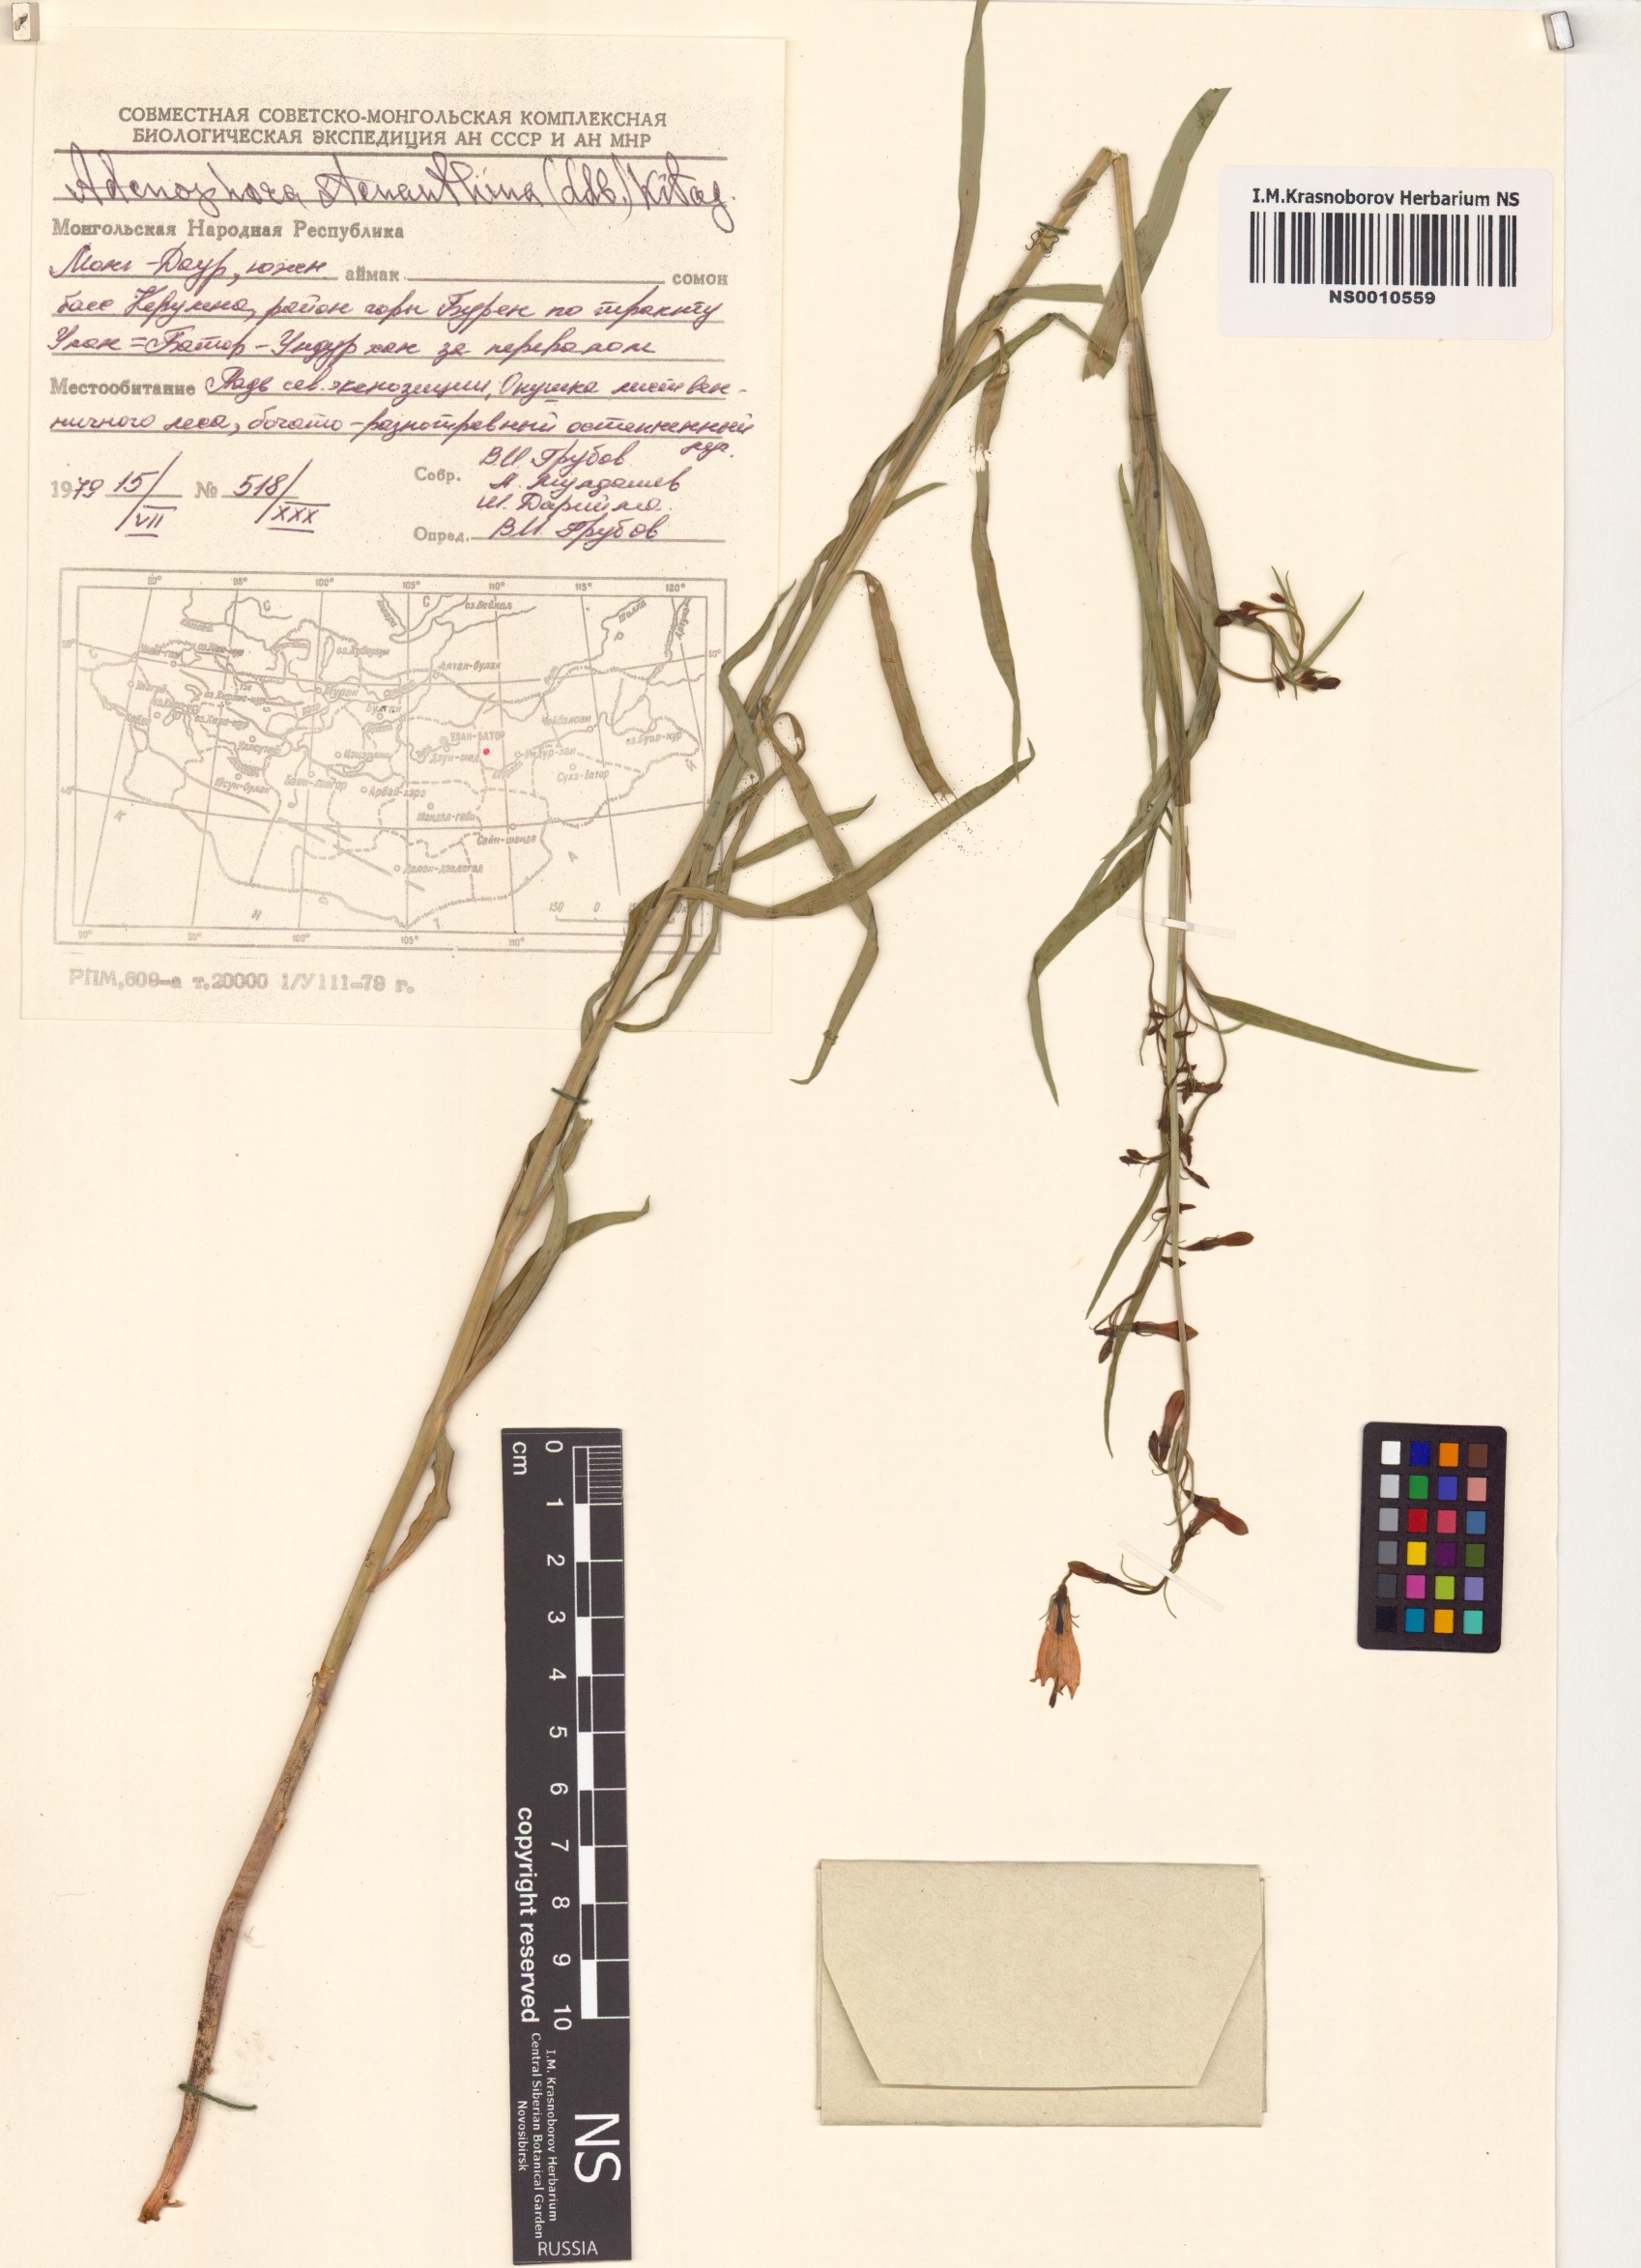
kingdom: Plantae
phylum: Tracheophyta
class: Magnoliopsida
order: Asterales
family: Campanulaceae
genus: Adenophora
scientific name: Adenophora stenanthina
